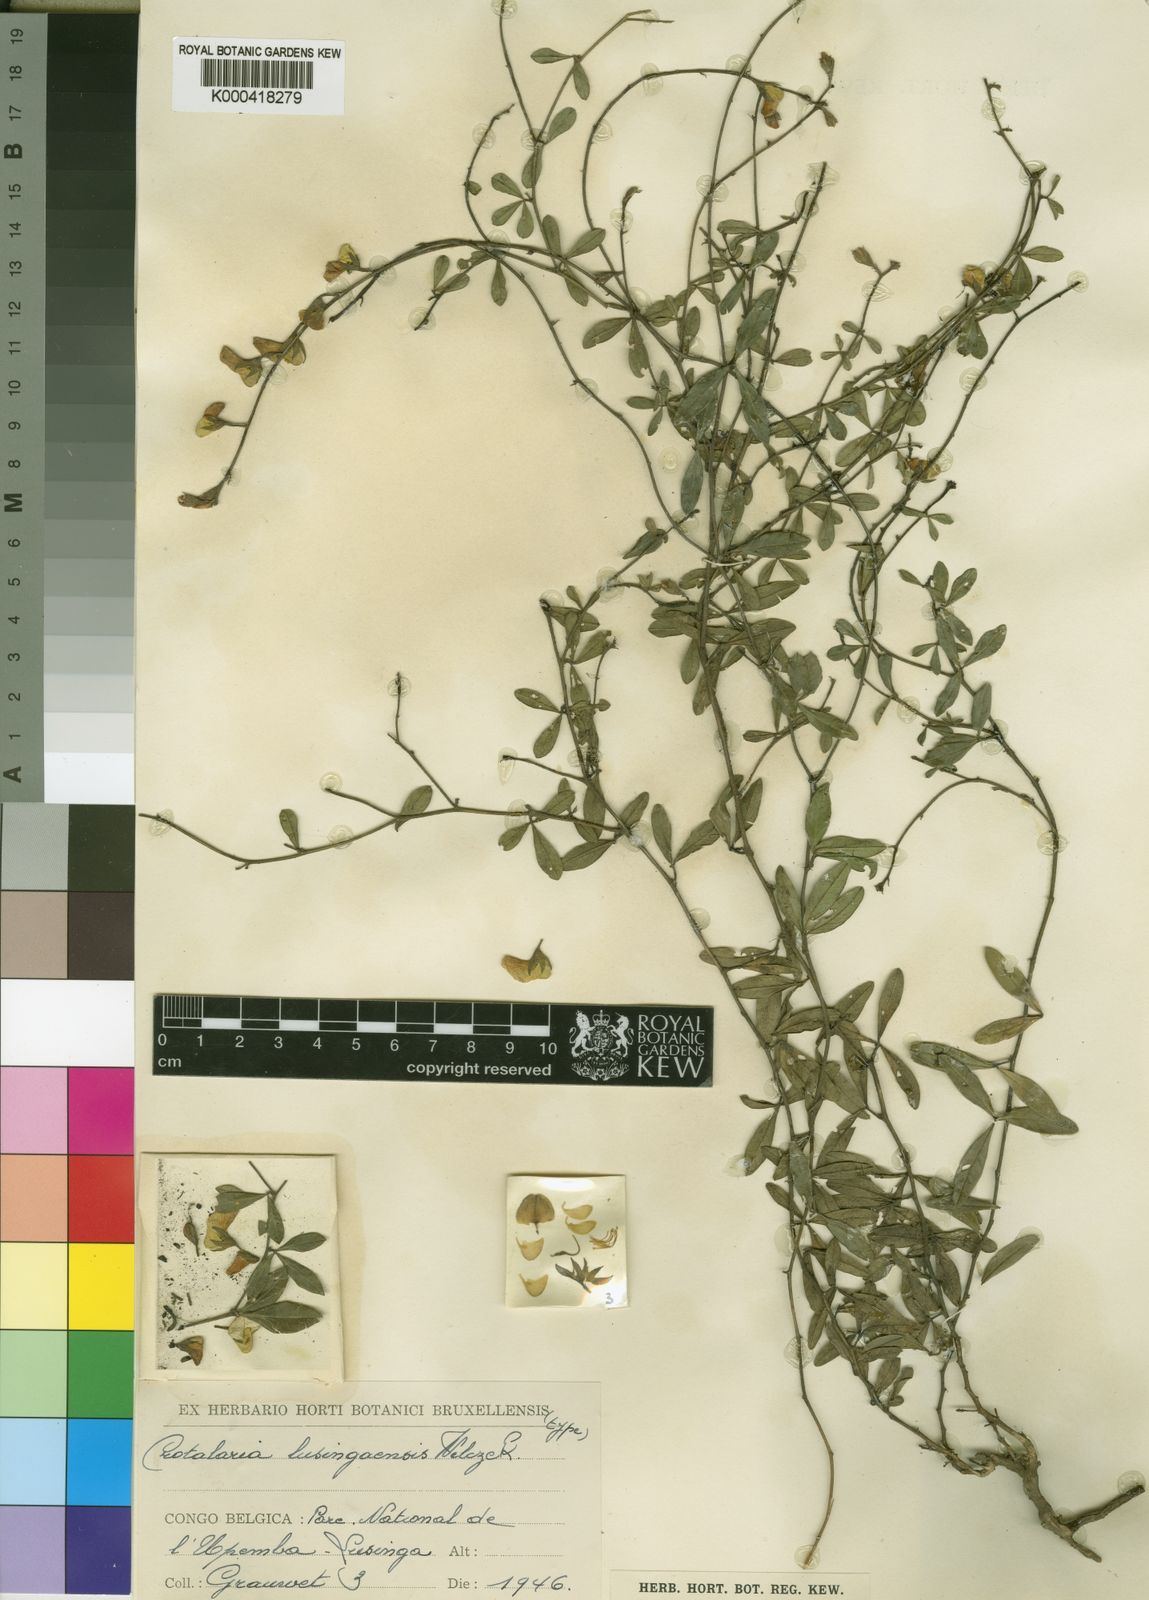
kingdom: Plantae
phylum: Tracheophyta
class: Magnoliopsida
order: Fabales
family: Fabaceae
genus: Crotalaria
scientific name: Crotalaria lusingaensis
